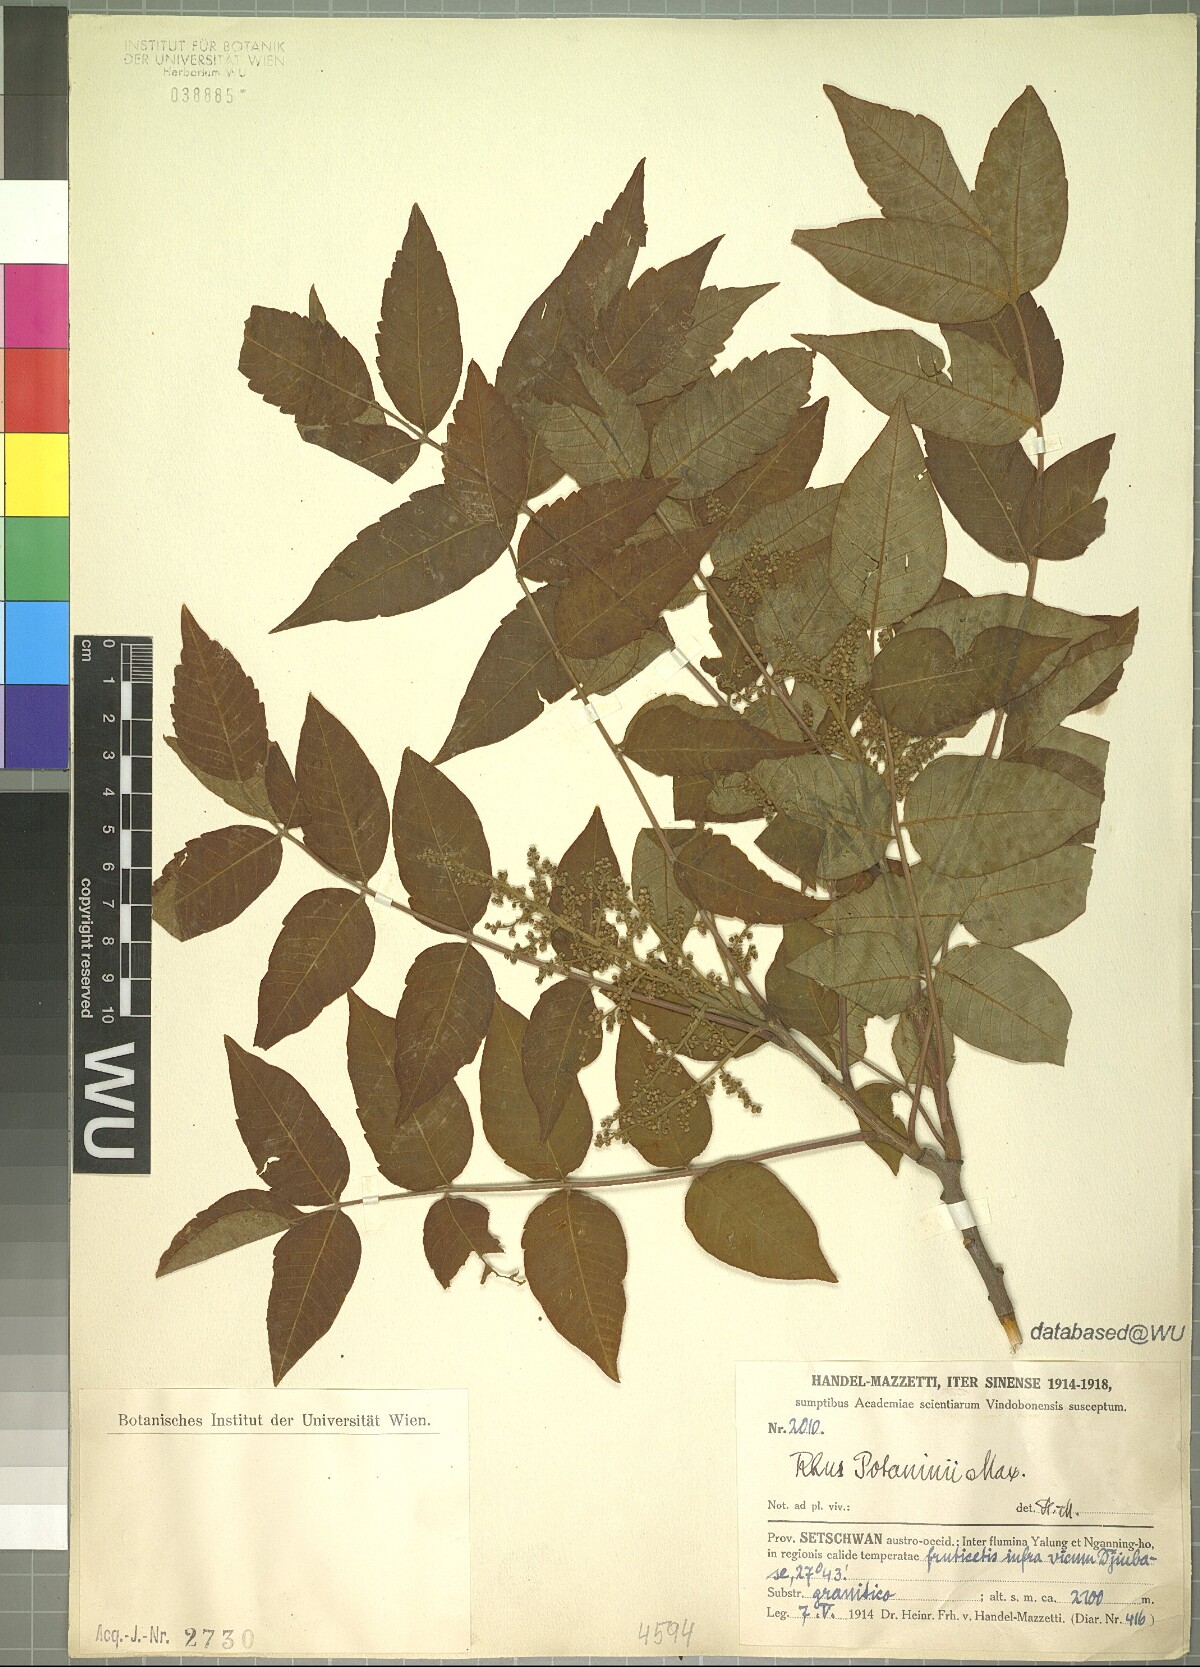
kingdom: Plantae
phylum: Tracheophyta
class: Magnoliopsida
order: Sapindales
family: Anacardiaceae
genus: Rhus
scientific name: Rhus potaninii
